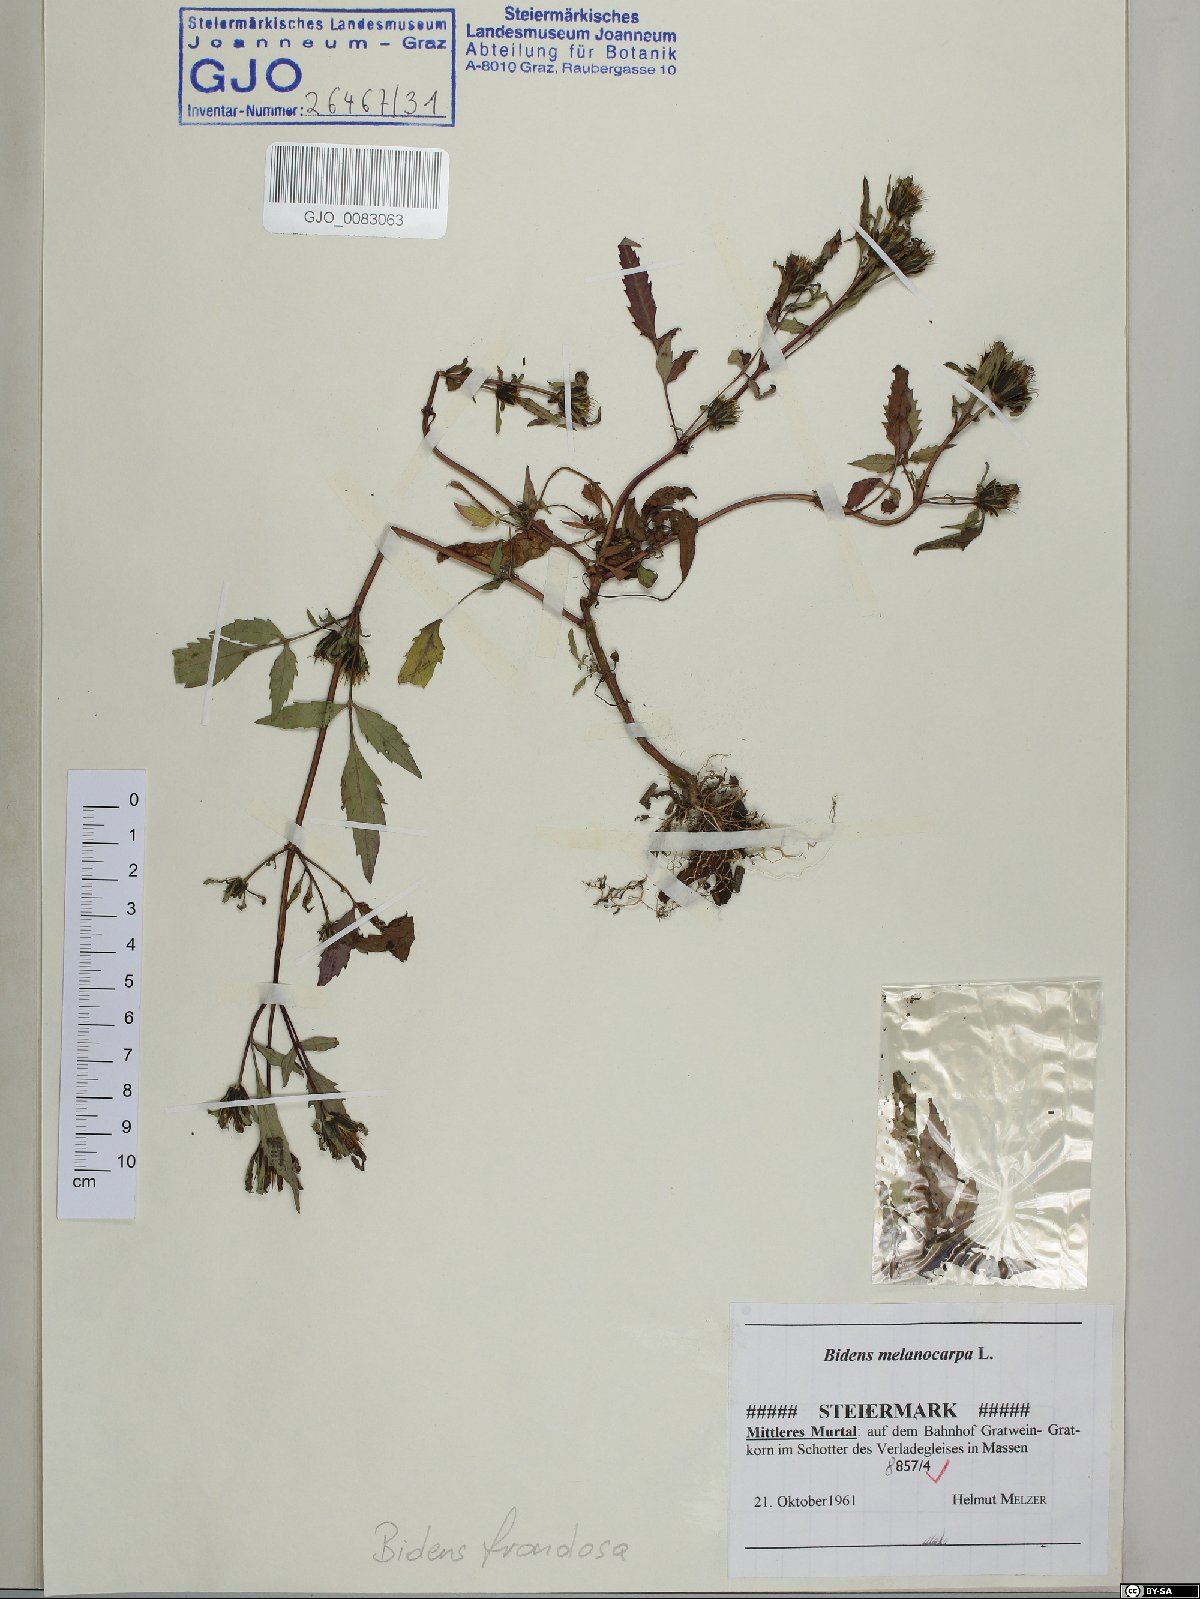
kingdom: Plantae
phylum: Tracheophyta
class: Magnoliopsida
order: Asterales
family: Asteraceae
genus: Bidens
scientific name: Bidens frondosa
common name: Beggarticks
